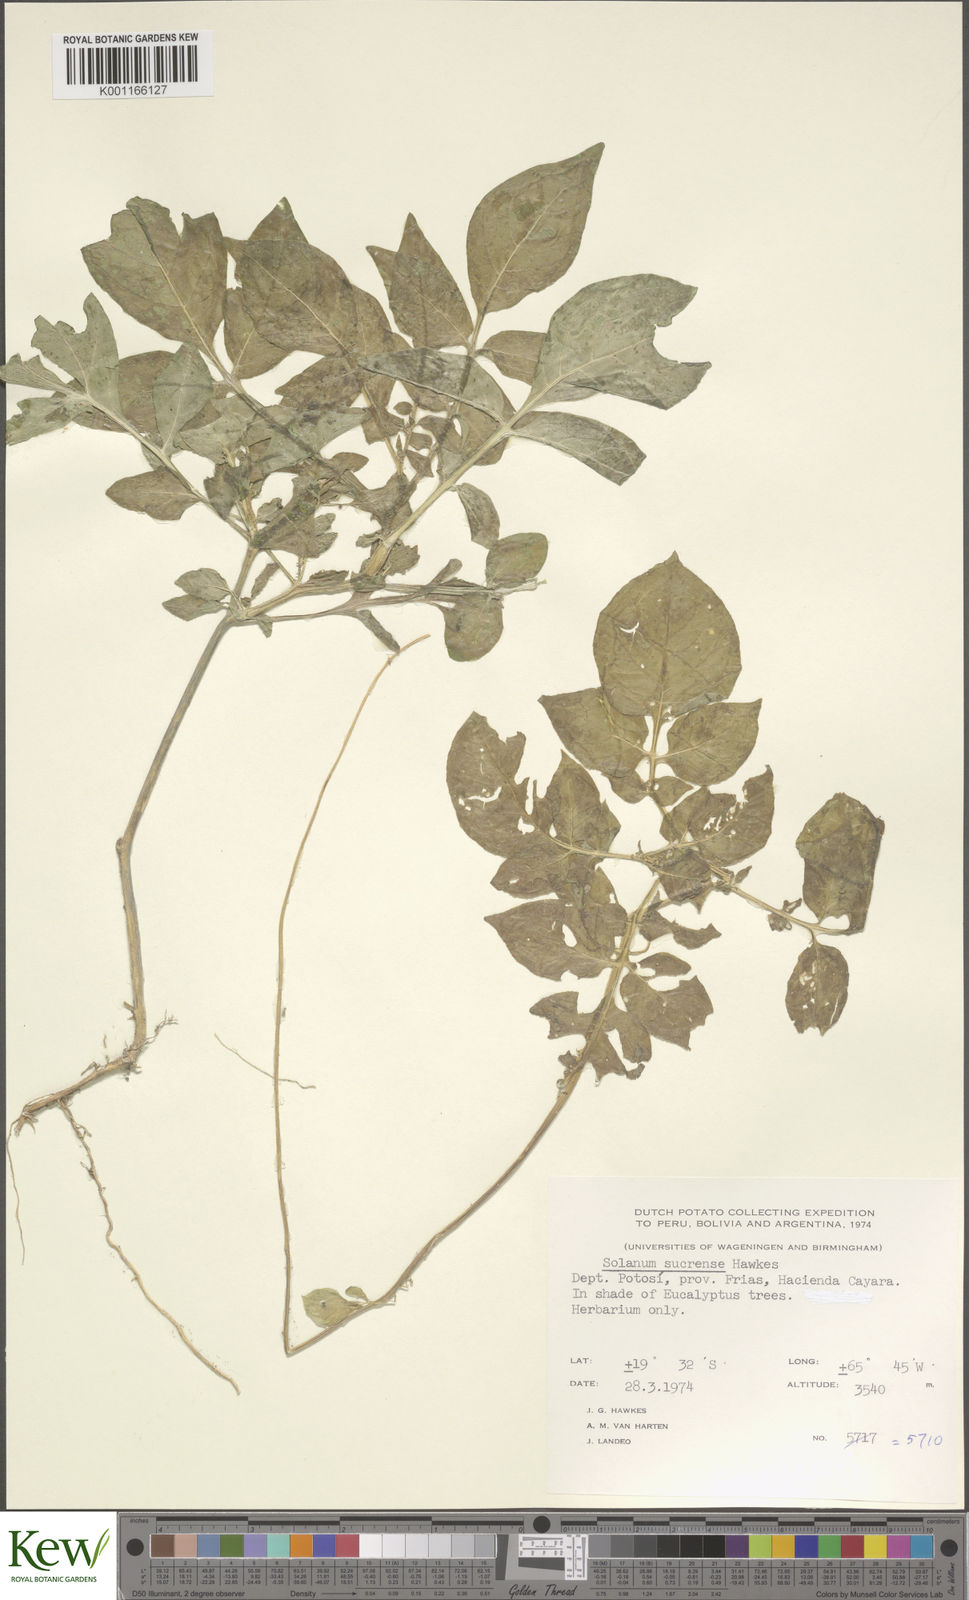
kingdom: Plantae
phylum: Tracheophyta
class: Magnoliopsida
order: Solanales
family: Solanaceae
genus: Solanum
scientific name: Solanum brevicaule
